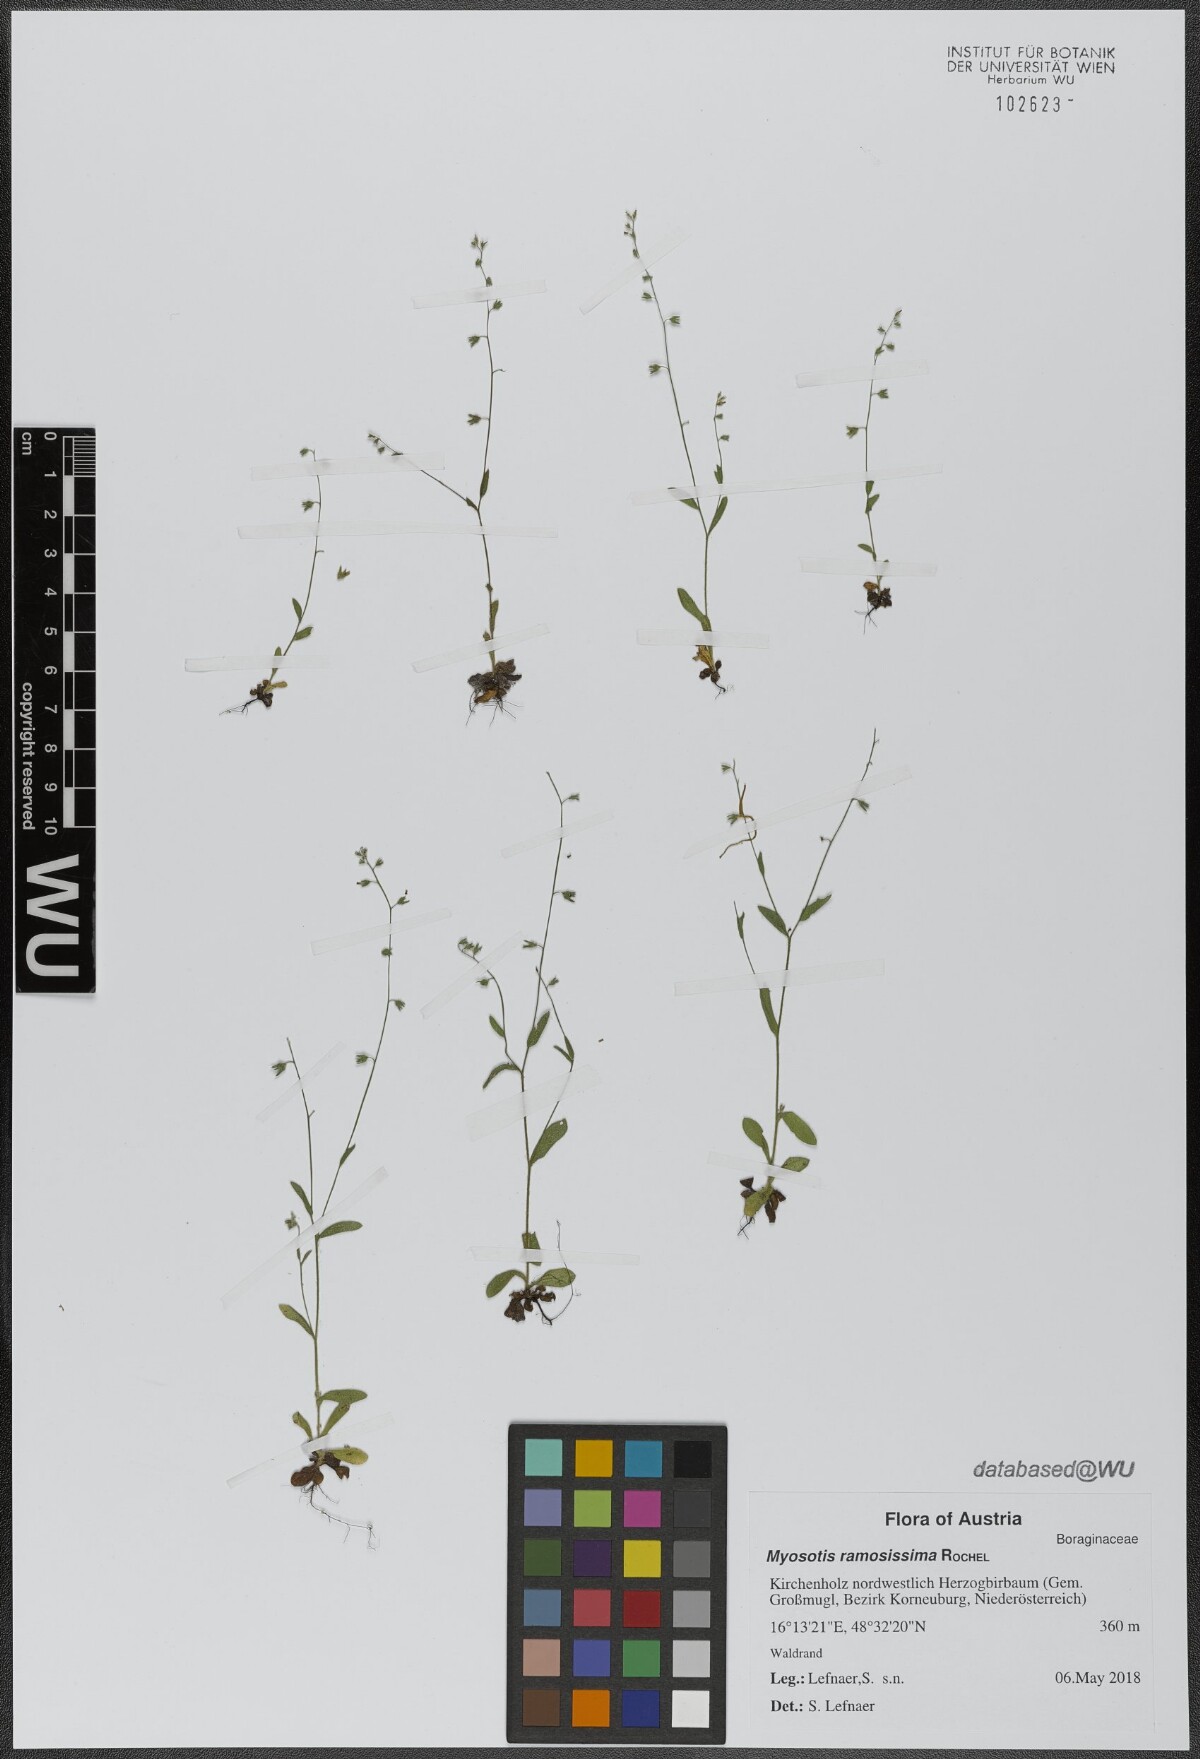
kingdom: Plantae
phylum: Tracheophyta
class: Magnoliopsida
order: Boraginales
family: Boraginaceae
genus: Myosotis
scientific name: Myosotis ramosissima
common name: Early forget-me-not
